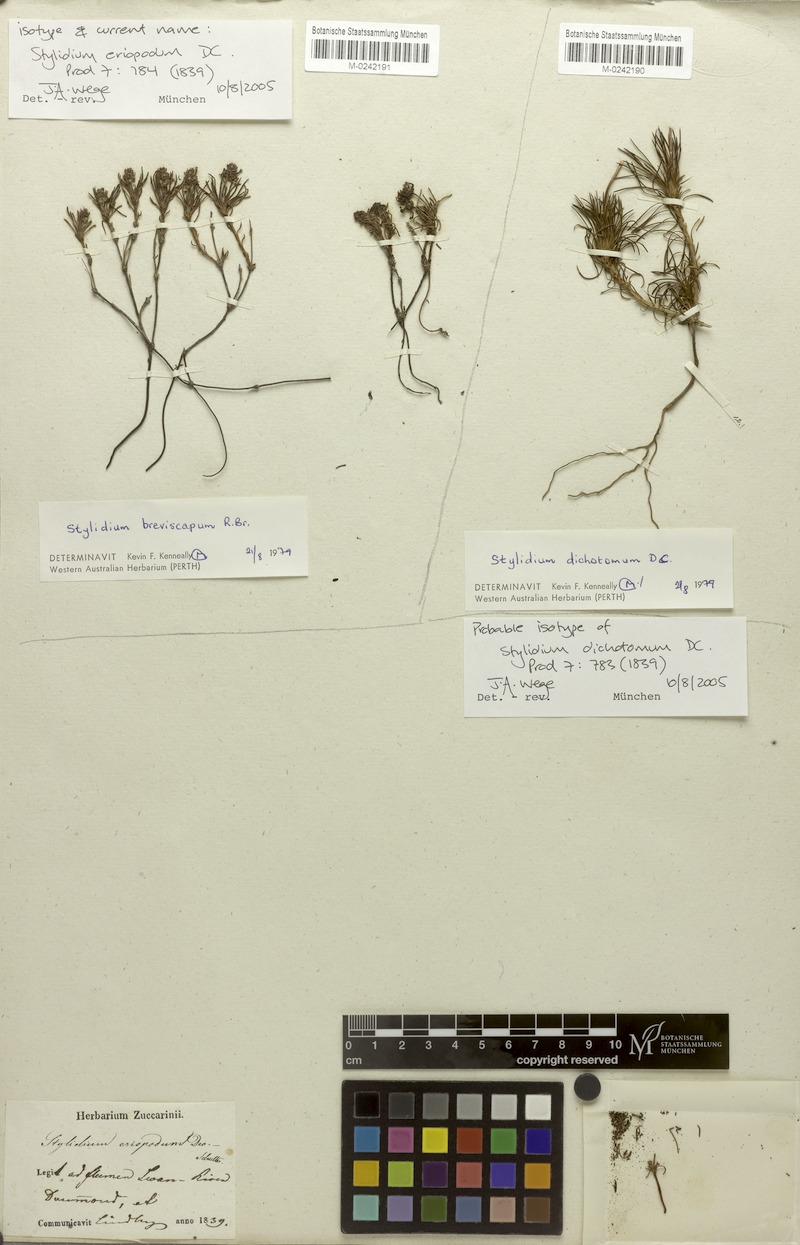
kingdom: Plantae
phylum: Tracheophyta
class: Magnoliopsida
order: Asterales
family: Stylidiaceae
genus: Stylidium
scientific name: Stylidium dichotomum
